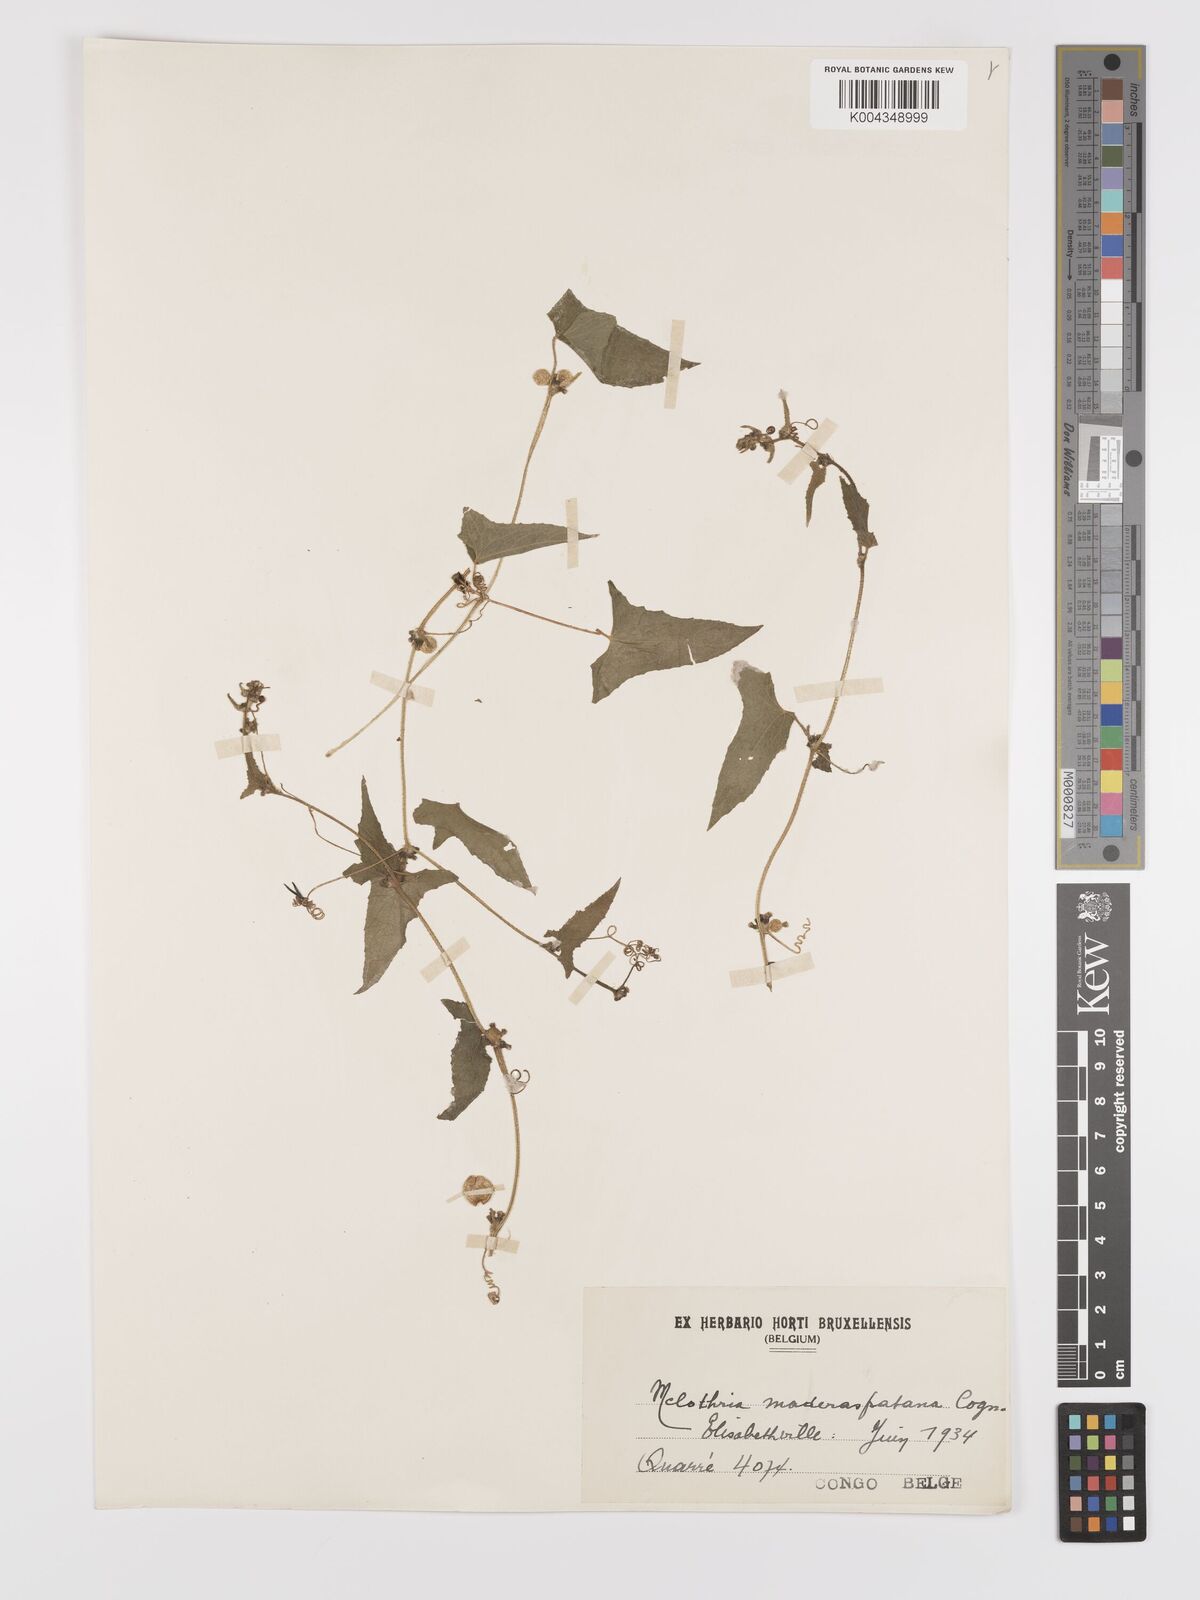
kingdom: Plantae
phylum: Tracheophyta
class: Magnoliopsida
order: Cucurbitales
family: Cucurbitaceae
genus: Cucumis
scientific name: Cucumis maderaspatanus
